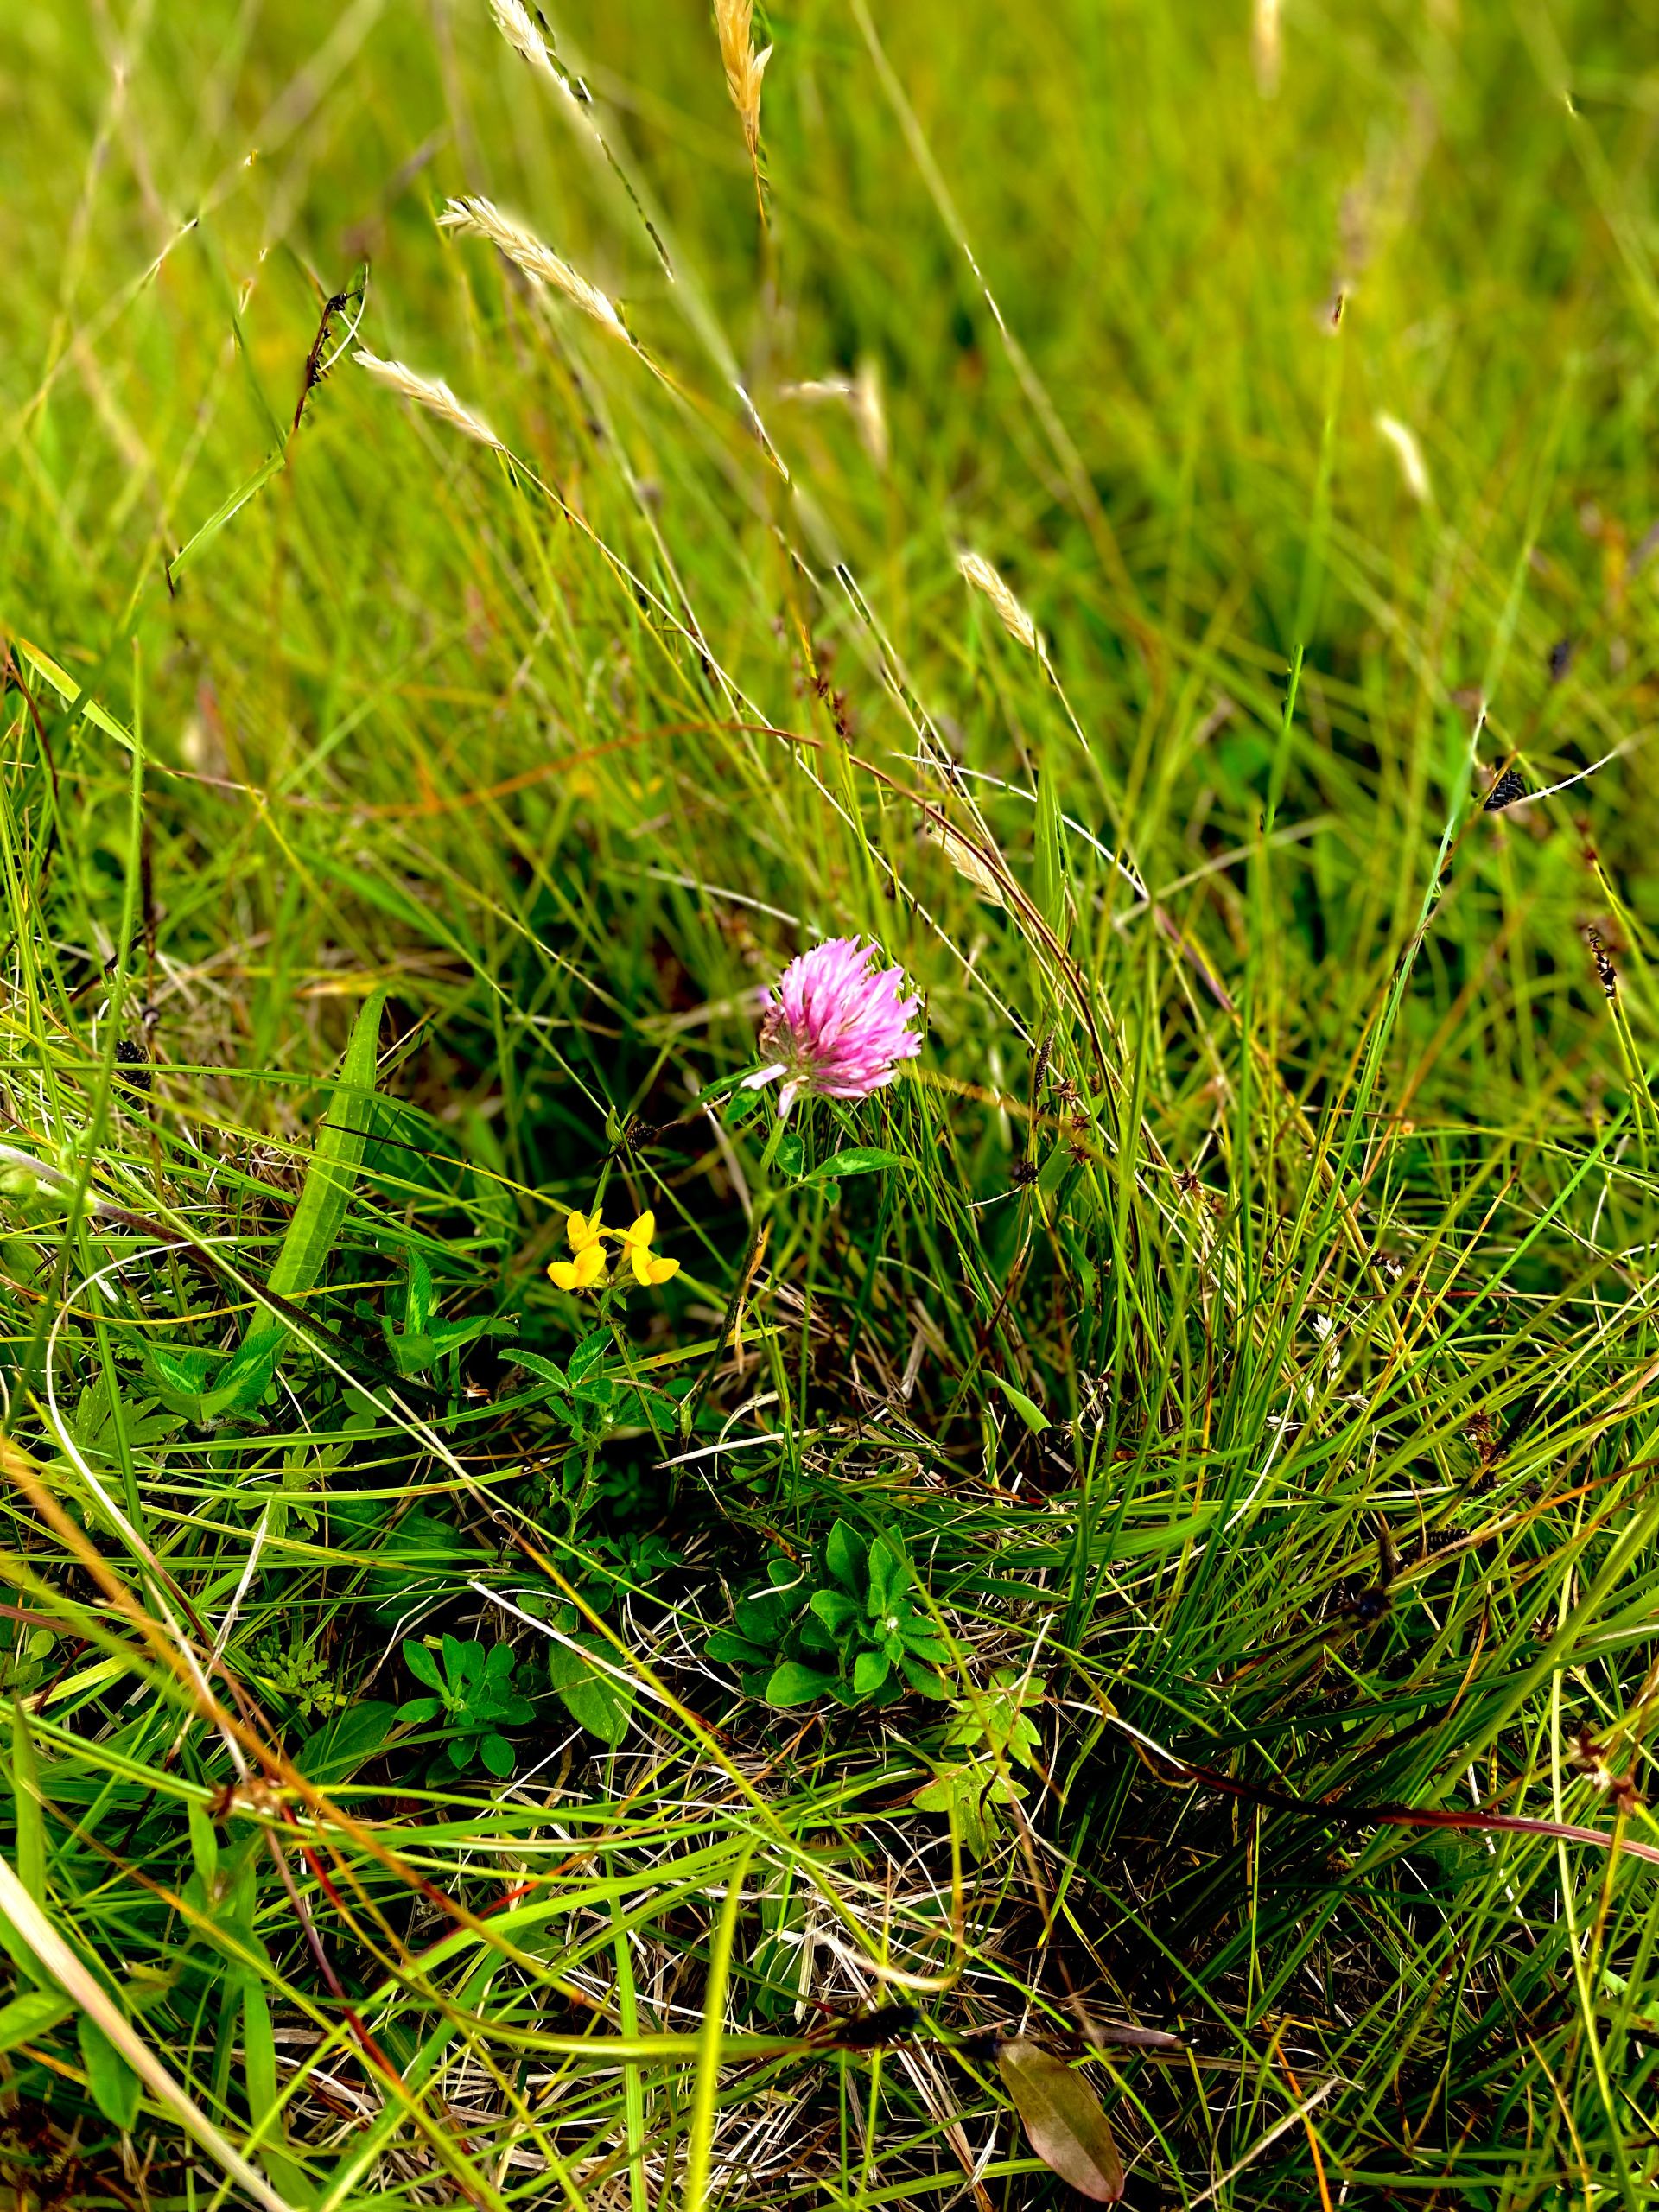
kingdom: Plantae
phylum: Tracheophyta
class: Magnoliopsida
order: Fabales
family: Fabaceae
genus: Trifolium
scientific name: Trifolium pratense
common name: Rød-kløver
